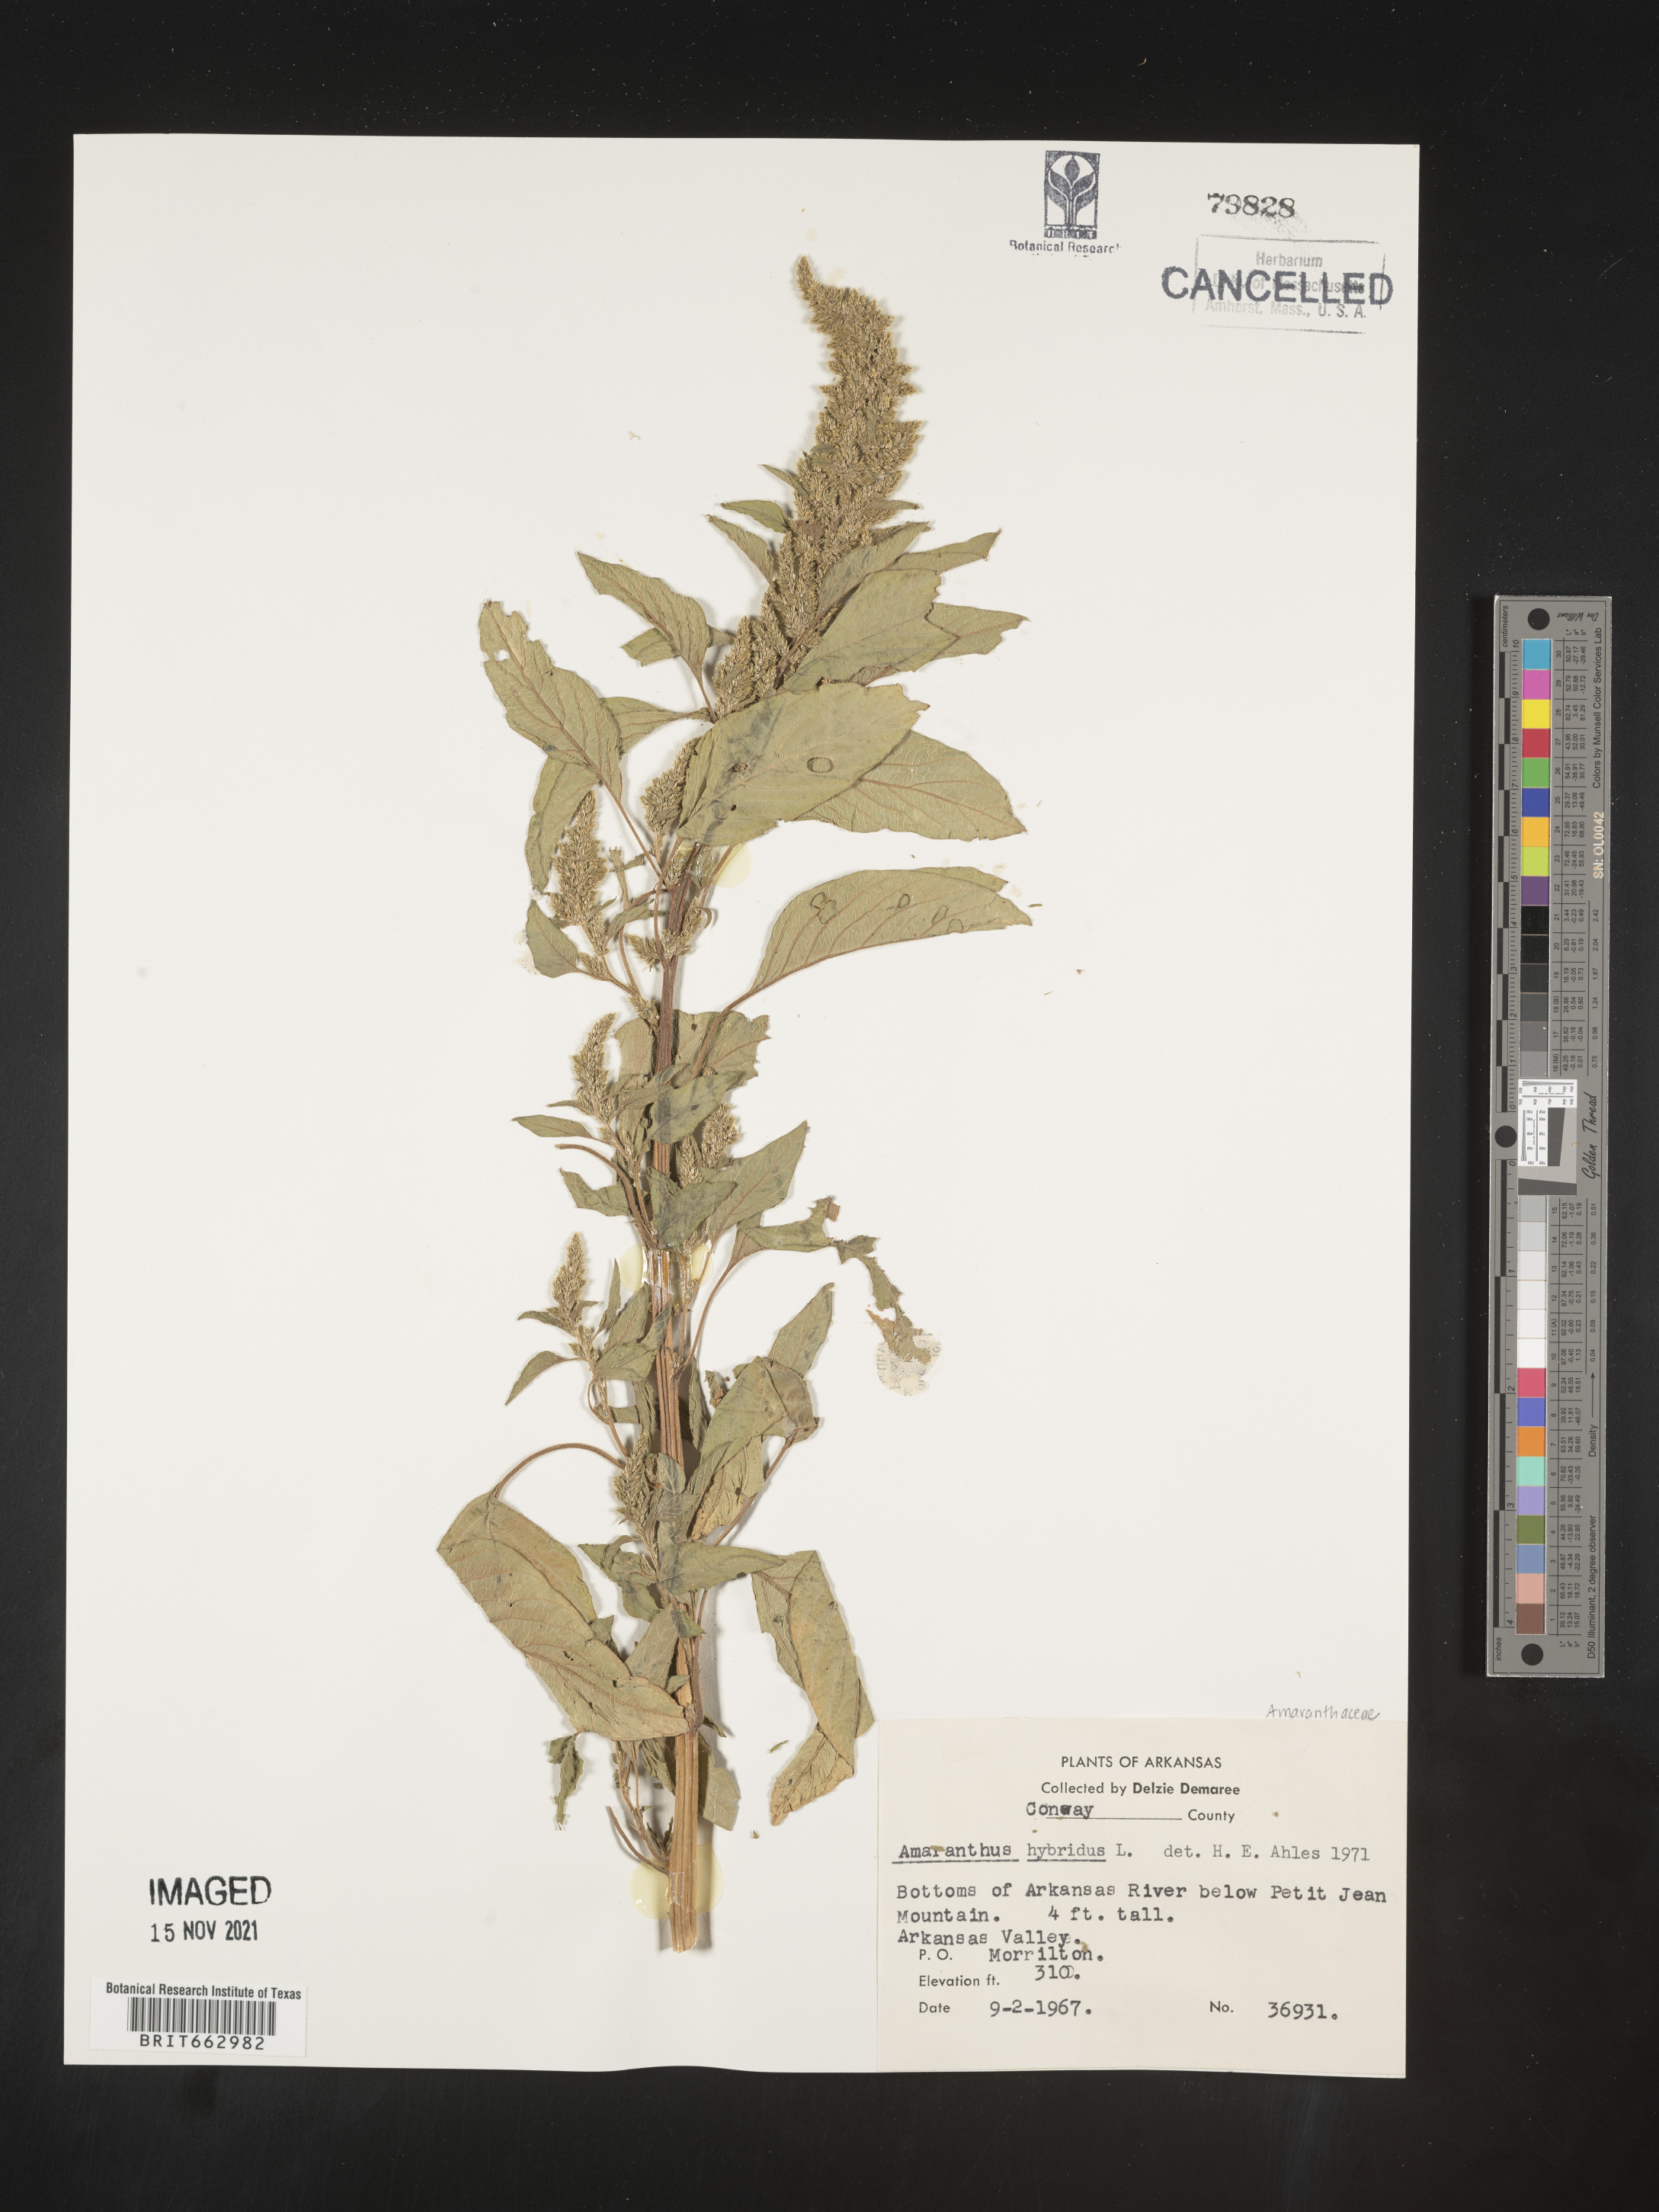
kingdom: Plantae
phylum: Tracheophyta
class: Magnoliopsida
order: Caryophyllales
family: Amaranthaceae
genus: Amaranthus
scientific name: Amaranthus hybridus
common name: Green amaranth
